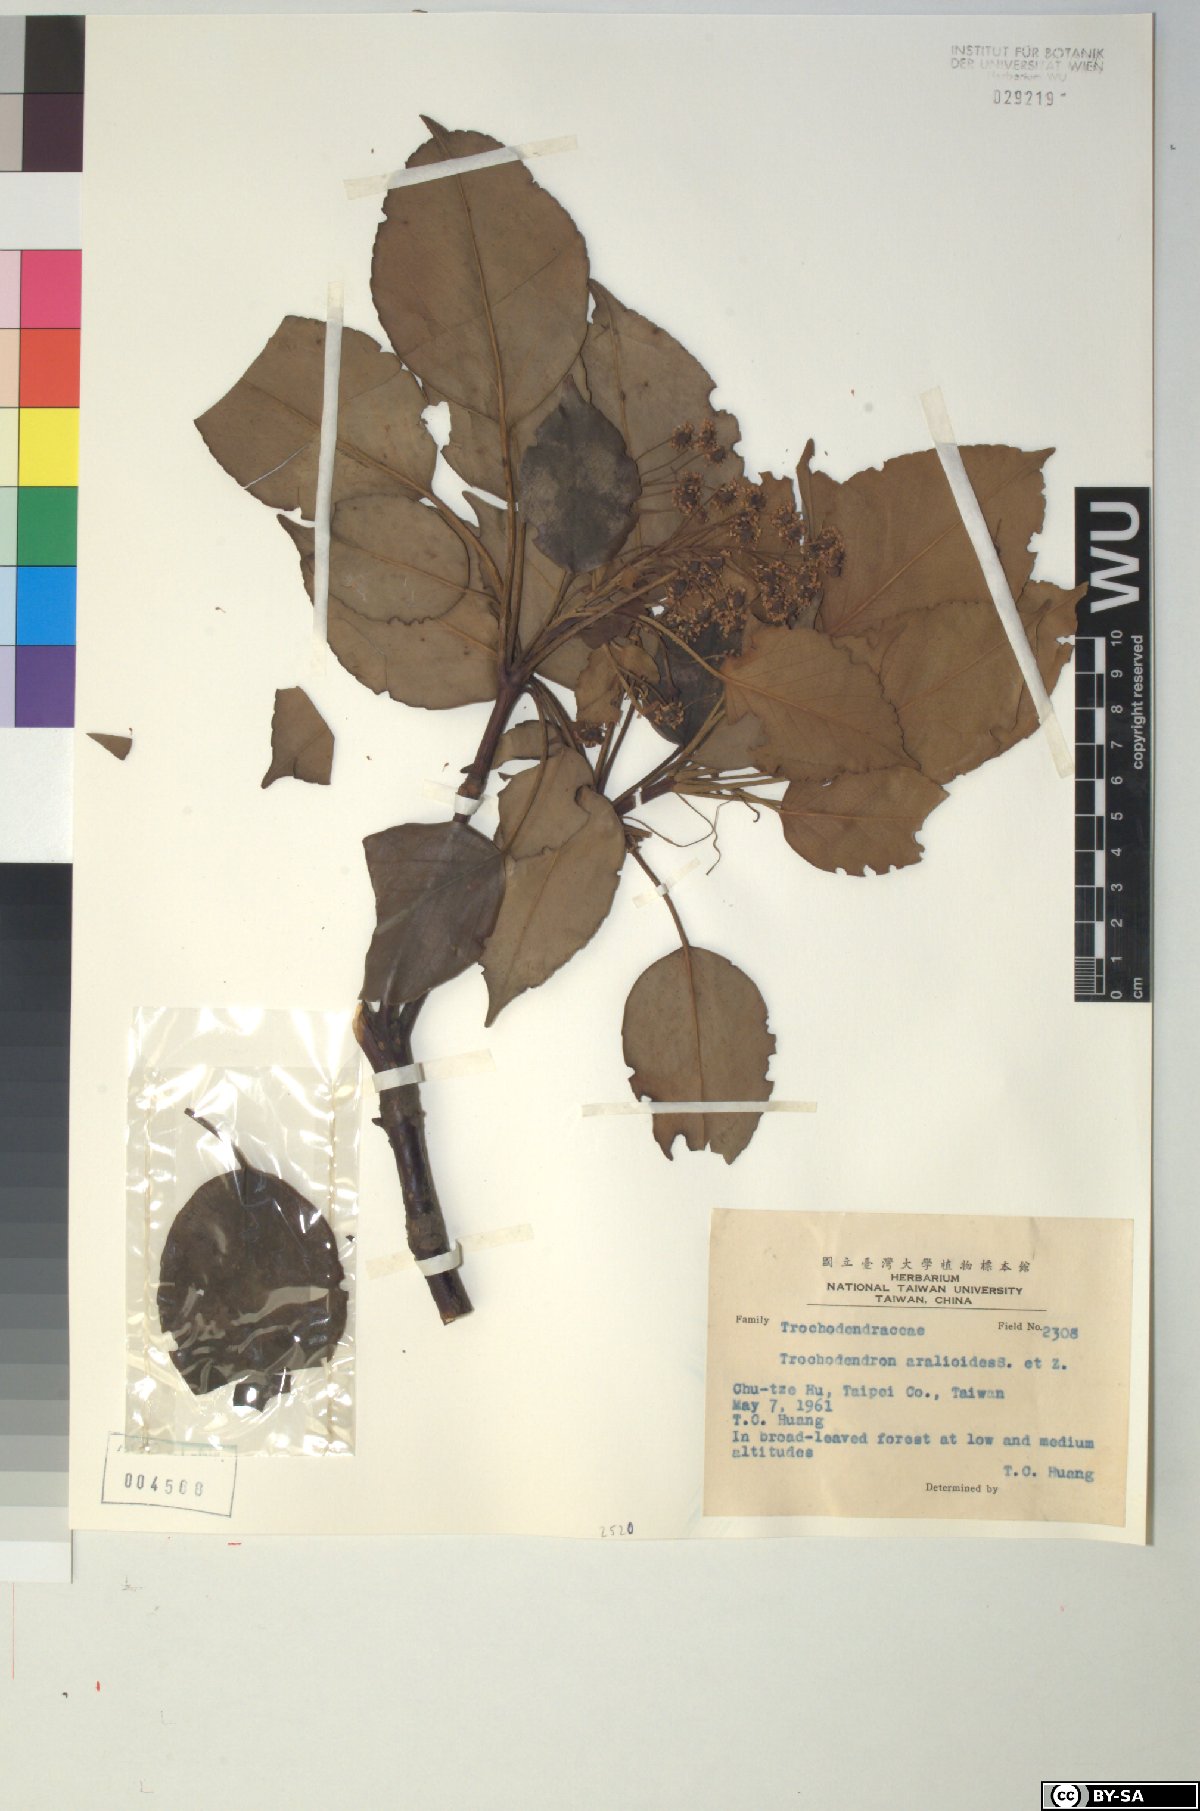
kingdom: Plantae
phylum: Tracheophyta
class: Magnoliopsida
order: Trochodendrales
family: Trochodendraceae
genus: Trochodendron
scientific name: Trochodendron aralioides
